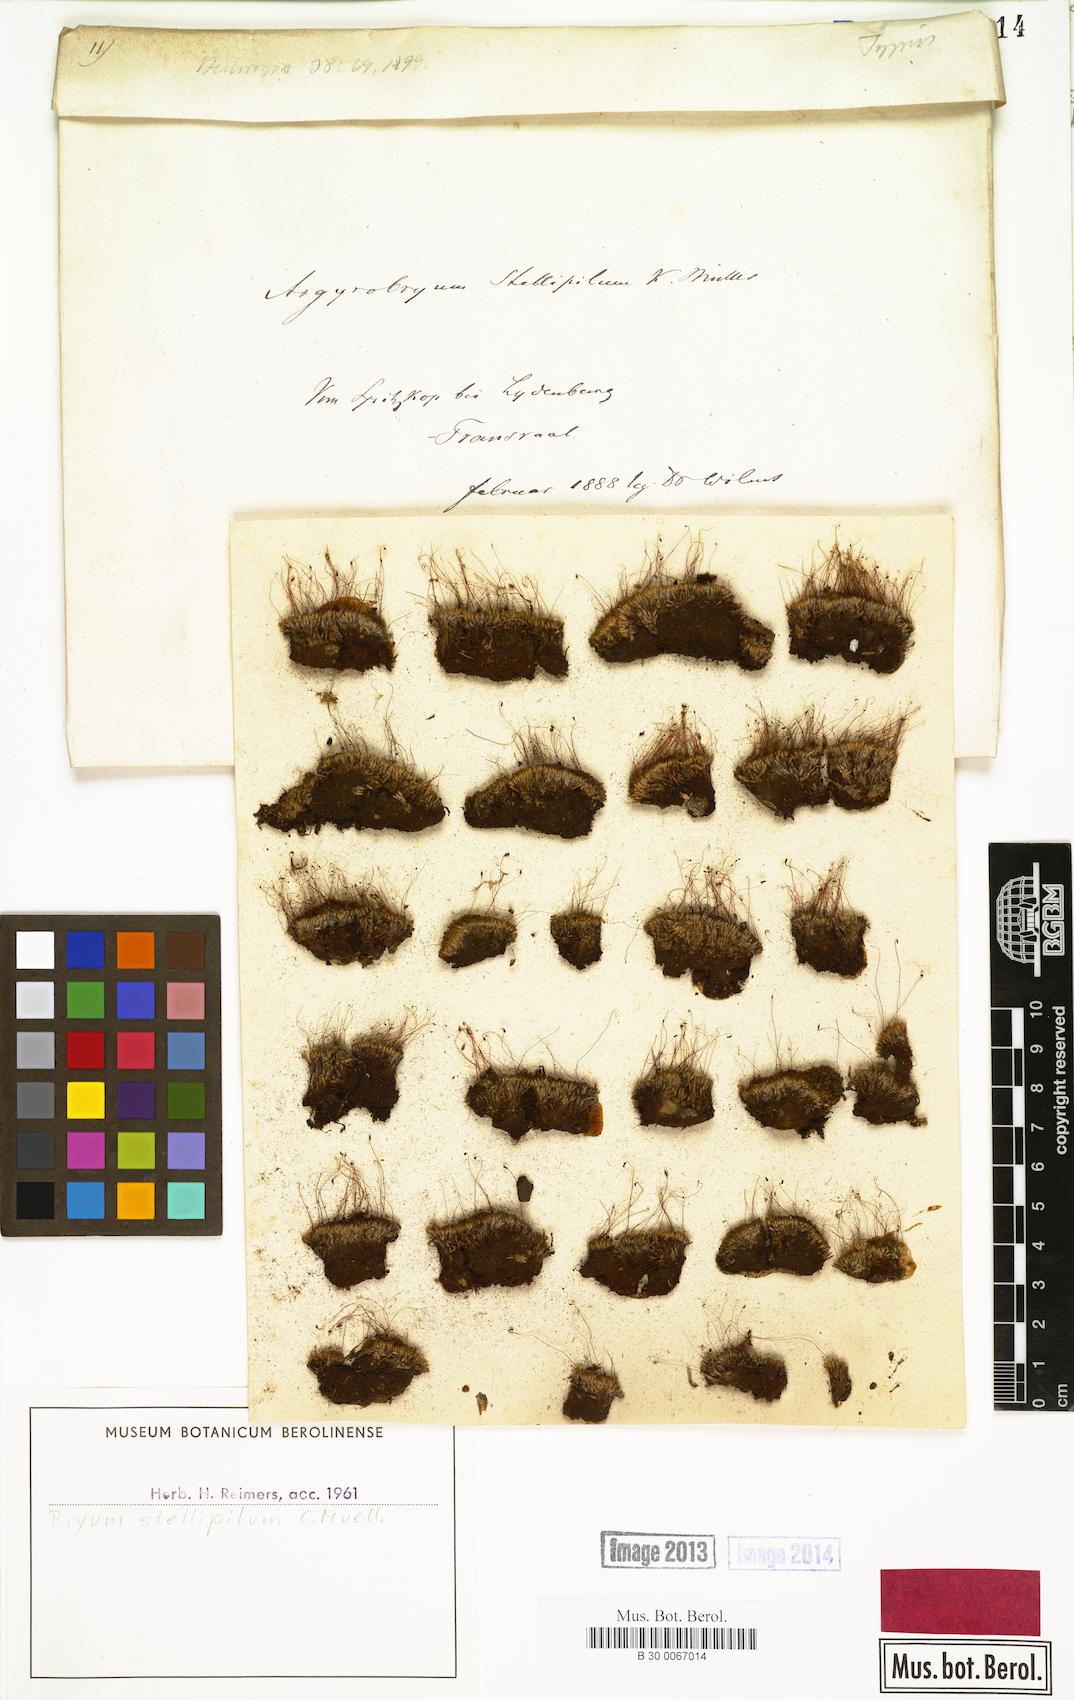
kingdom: Plantae
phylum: Bryophyta
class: Bryopsida
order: Bryales
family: Bryaceae
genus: Bryum
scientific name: Bryum argenteum
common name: Silver-moss
